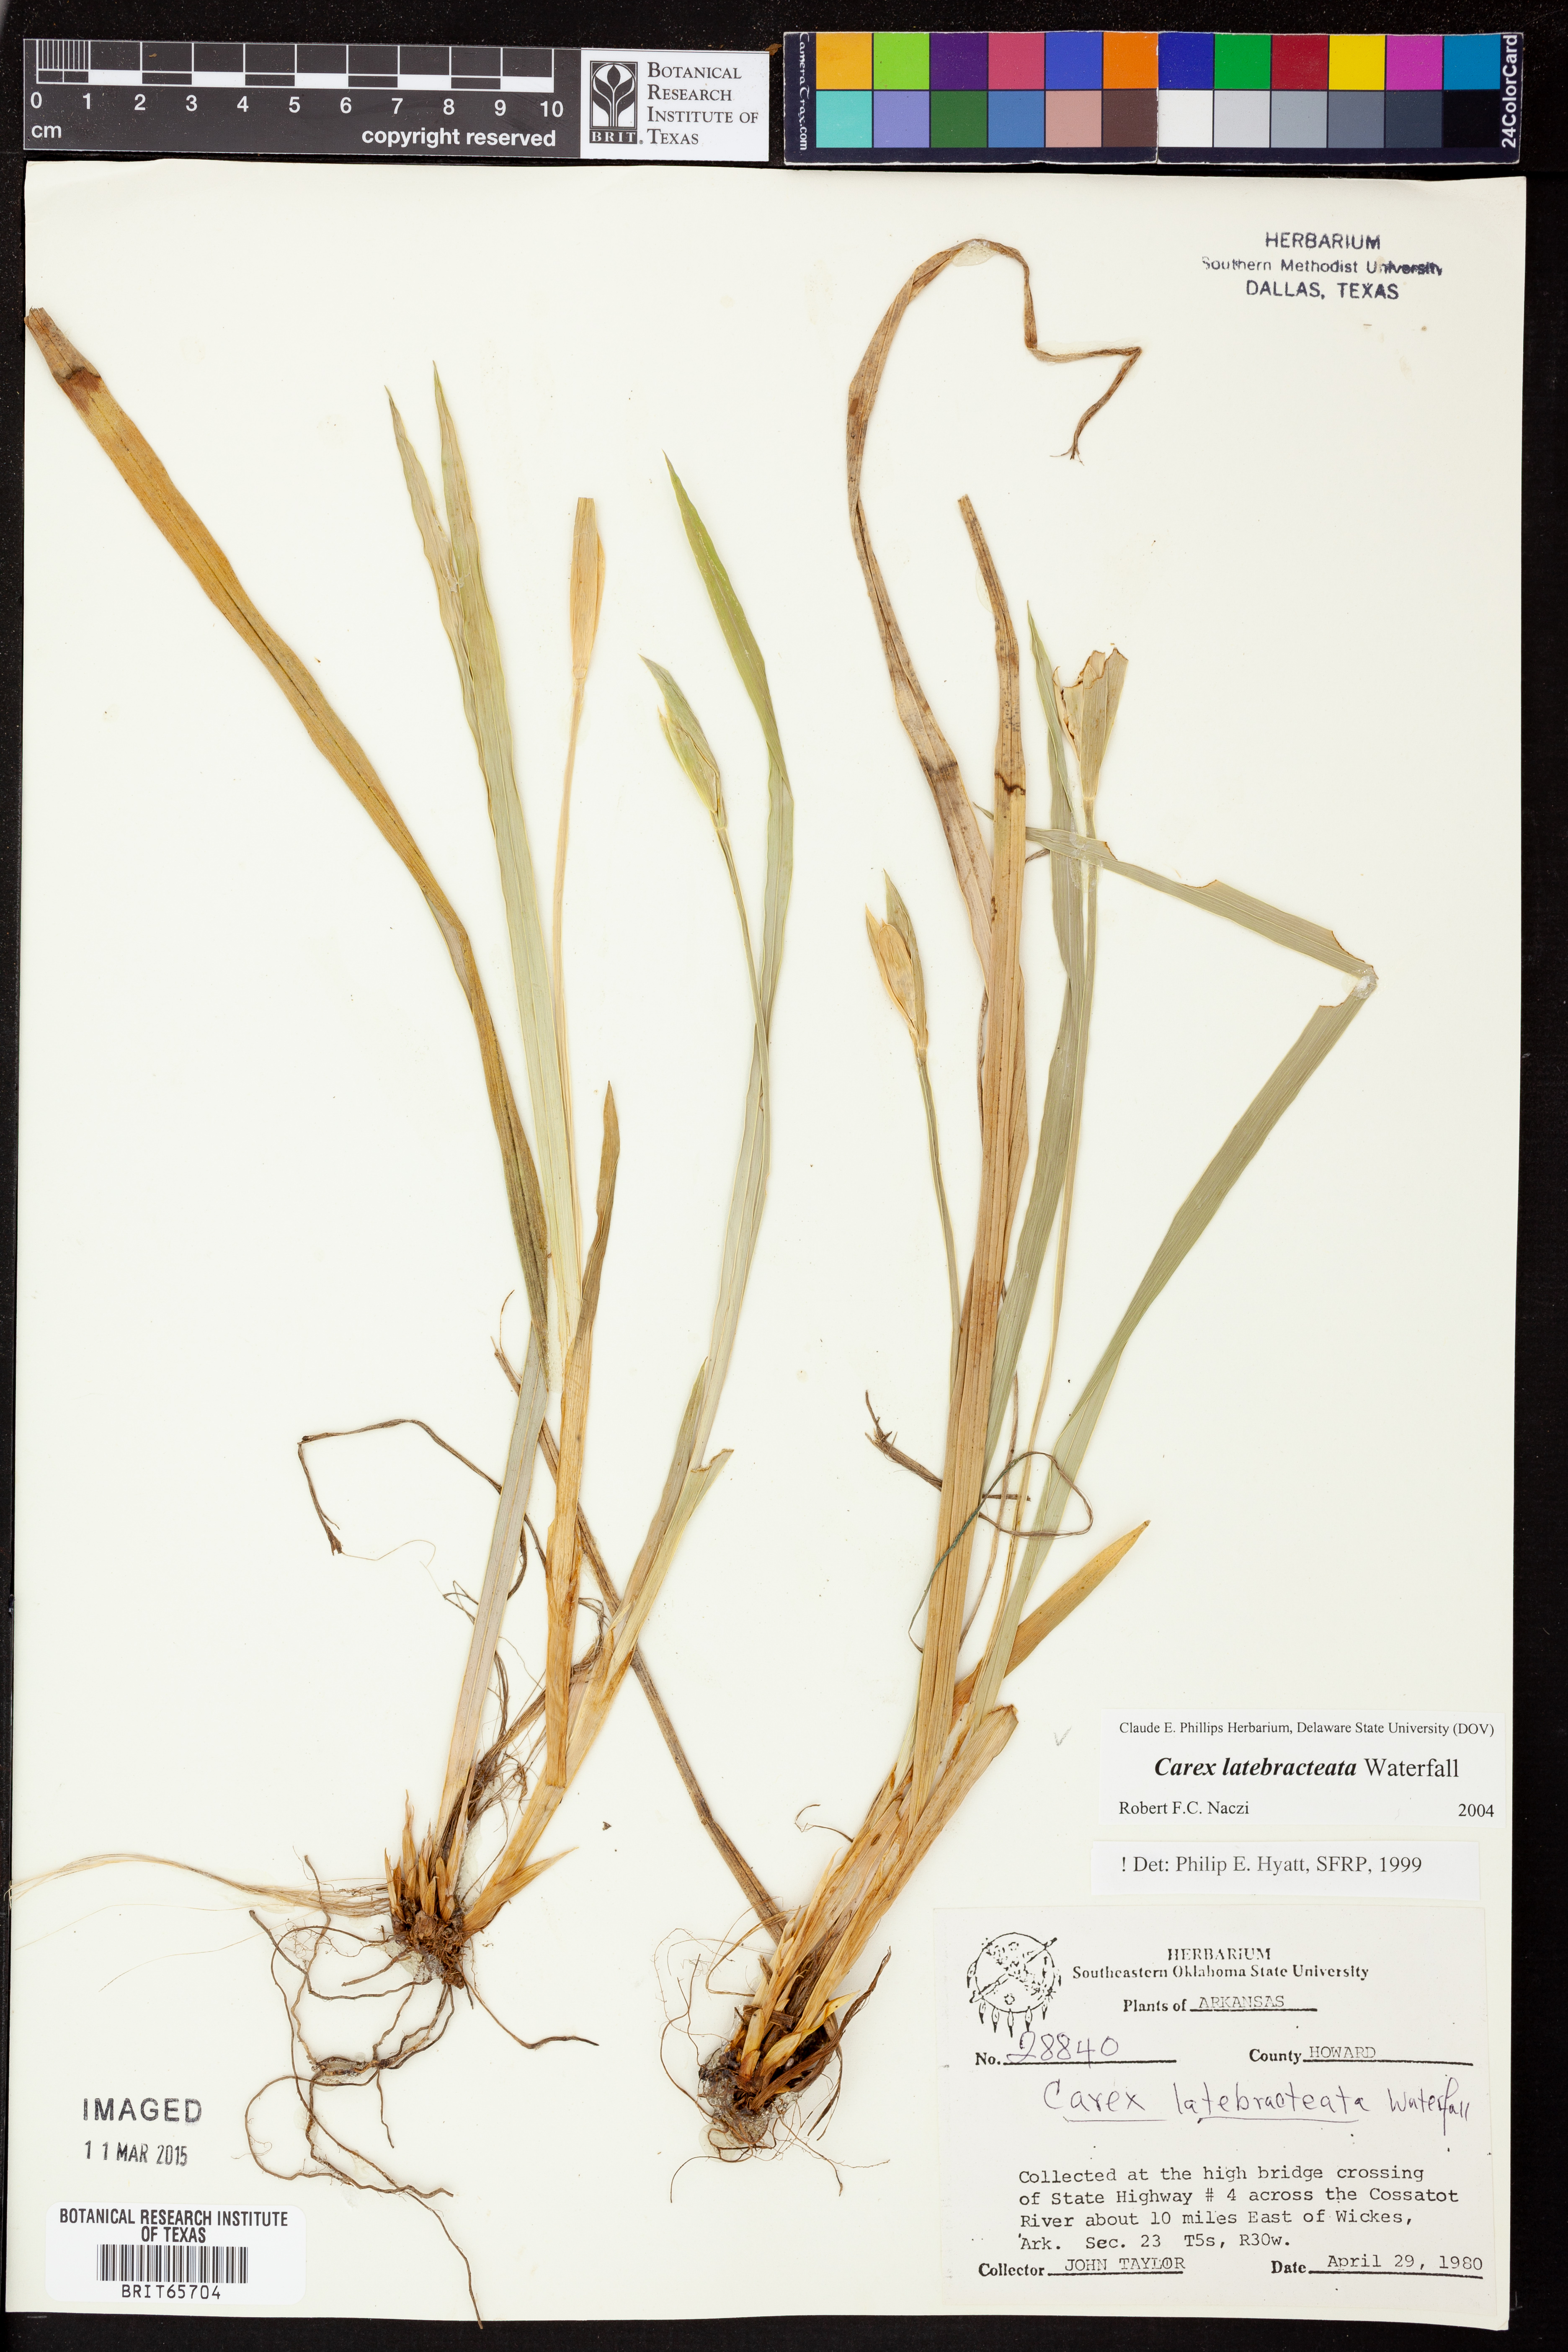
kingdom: Plantae
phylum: Tracheophyta
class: Liliopsida
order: Poales
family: Cyperaceae
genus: Carex
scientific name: Carex latebracteata
